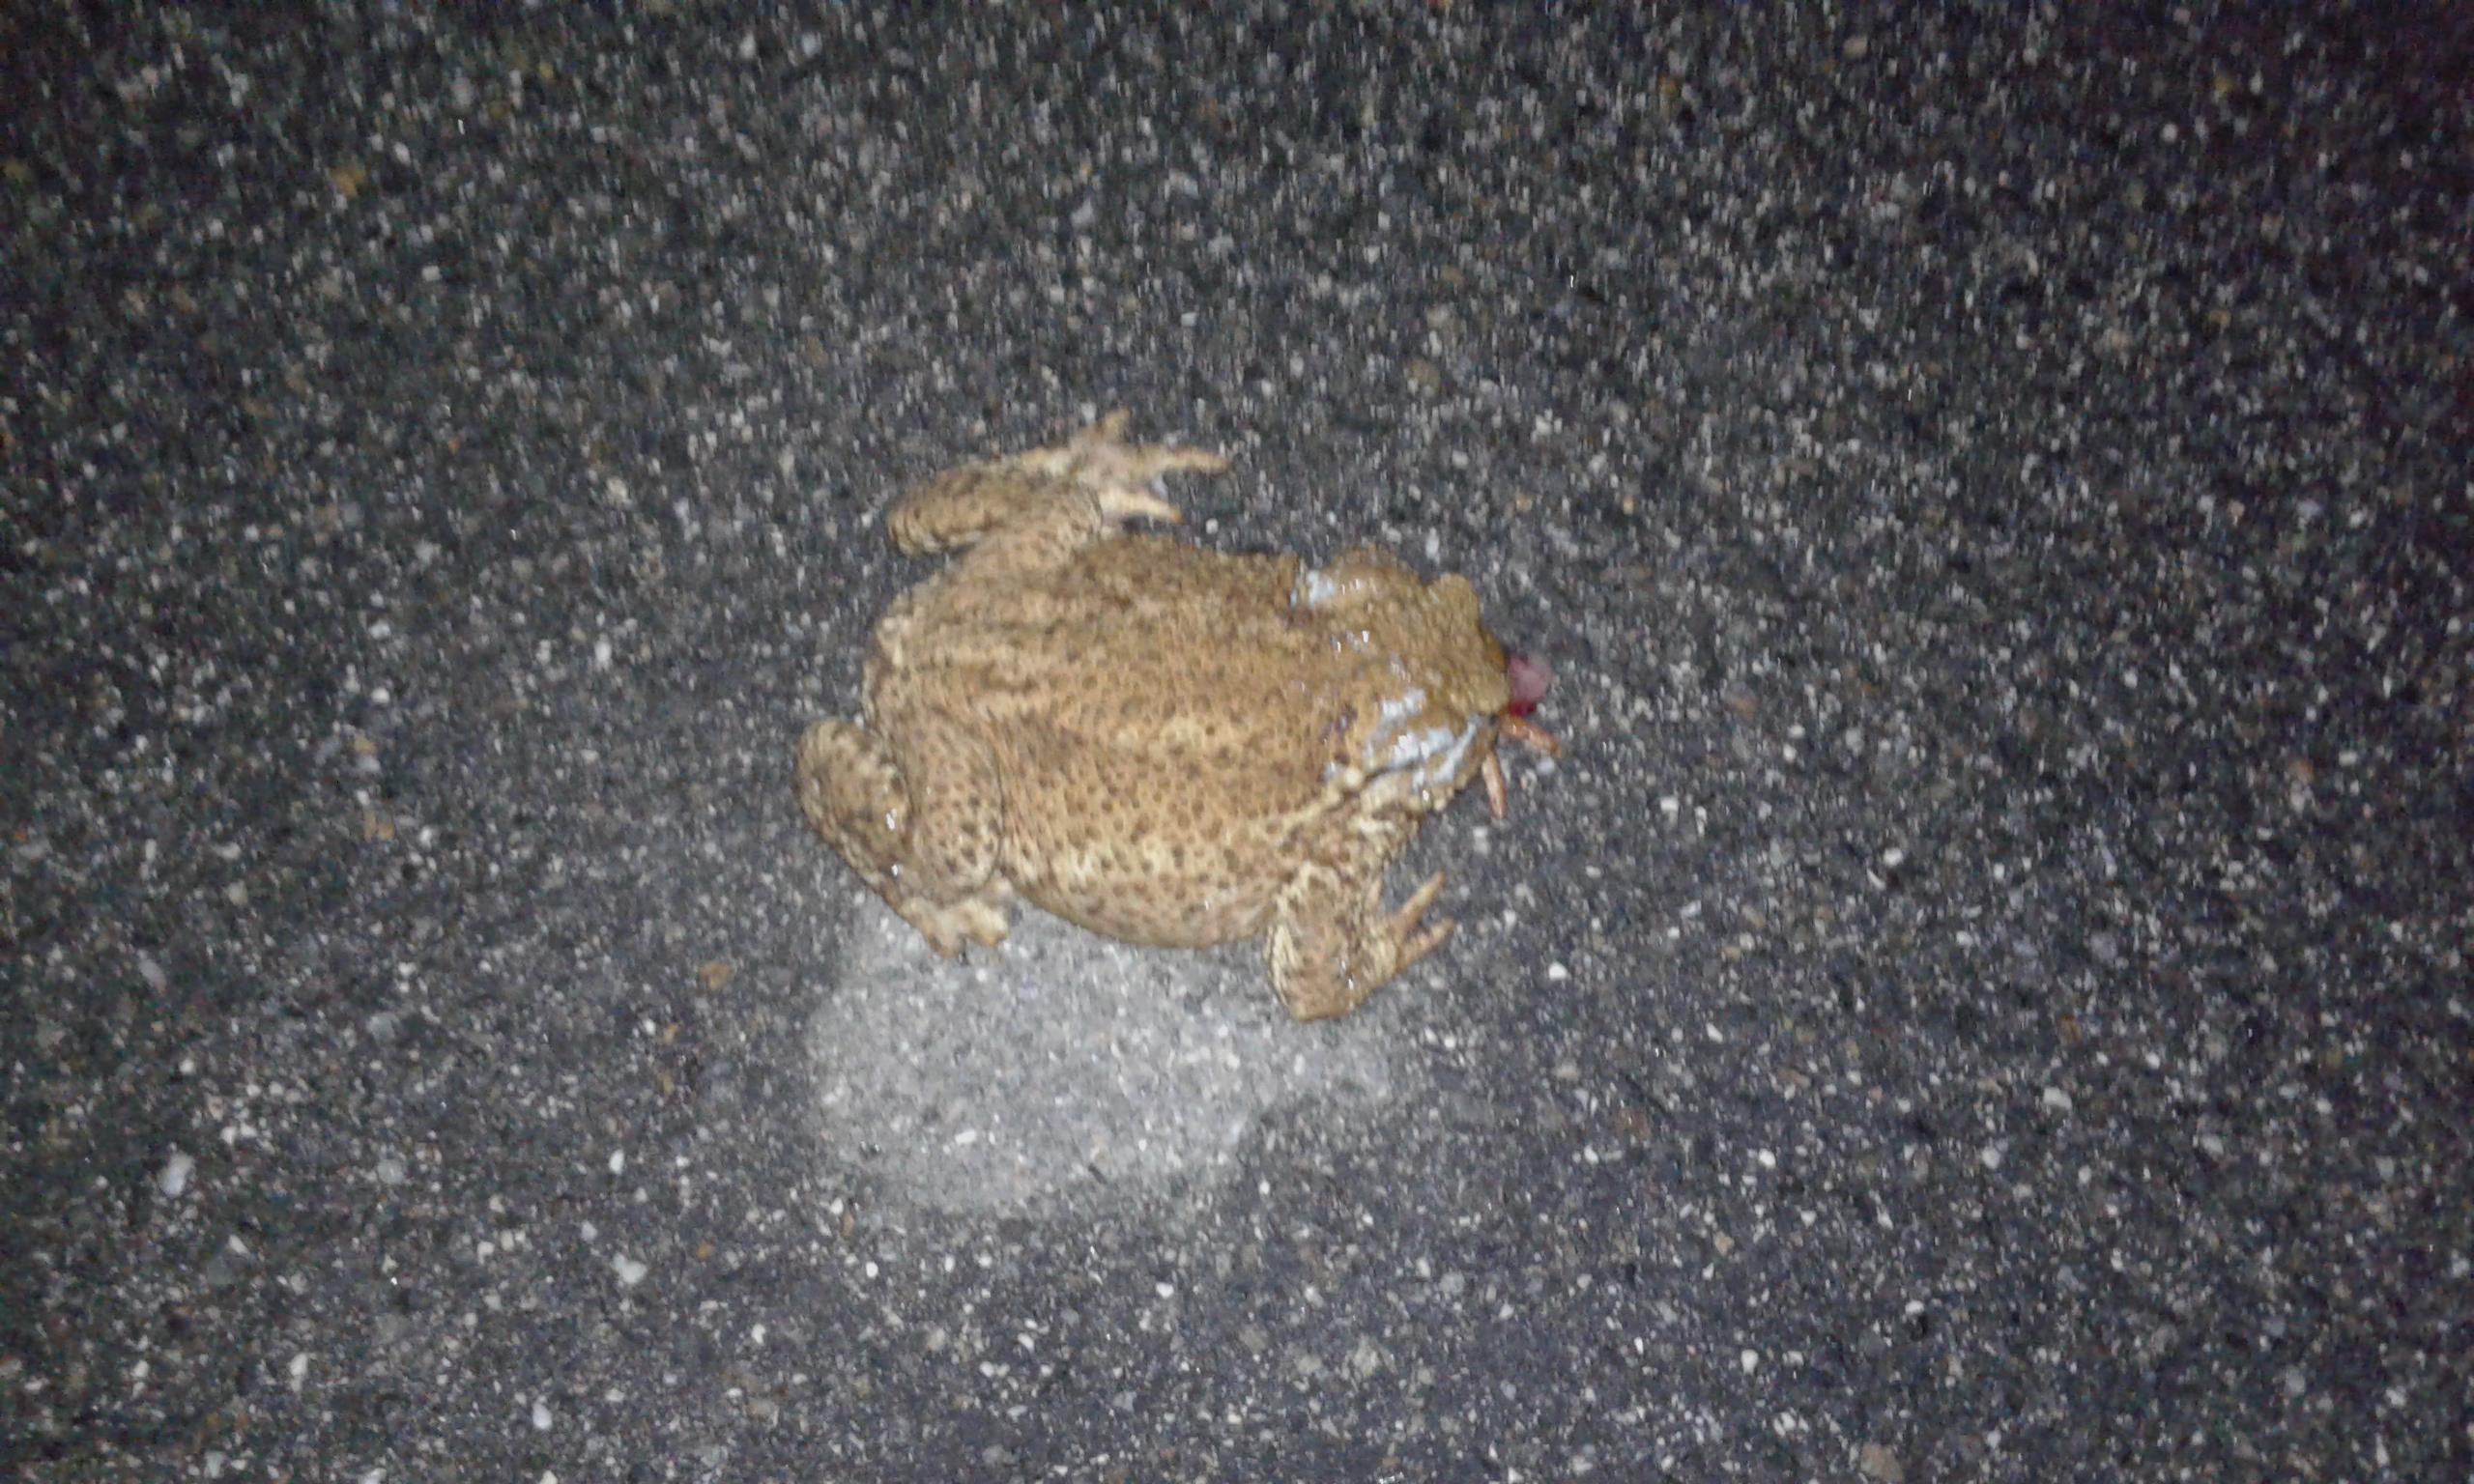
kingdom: Animalia
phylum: Chordata
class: Amphibia
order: Anura
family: Bufonidae
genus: Bufo
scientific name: Bufo bufo
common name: Common toad
